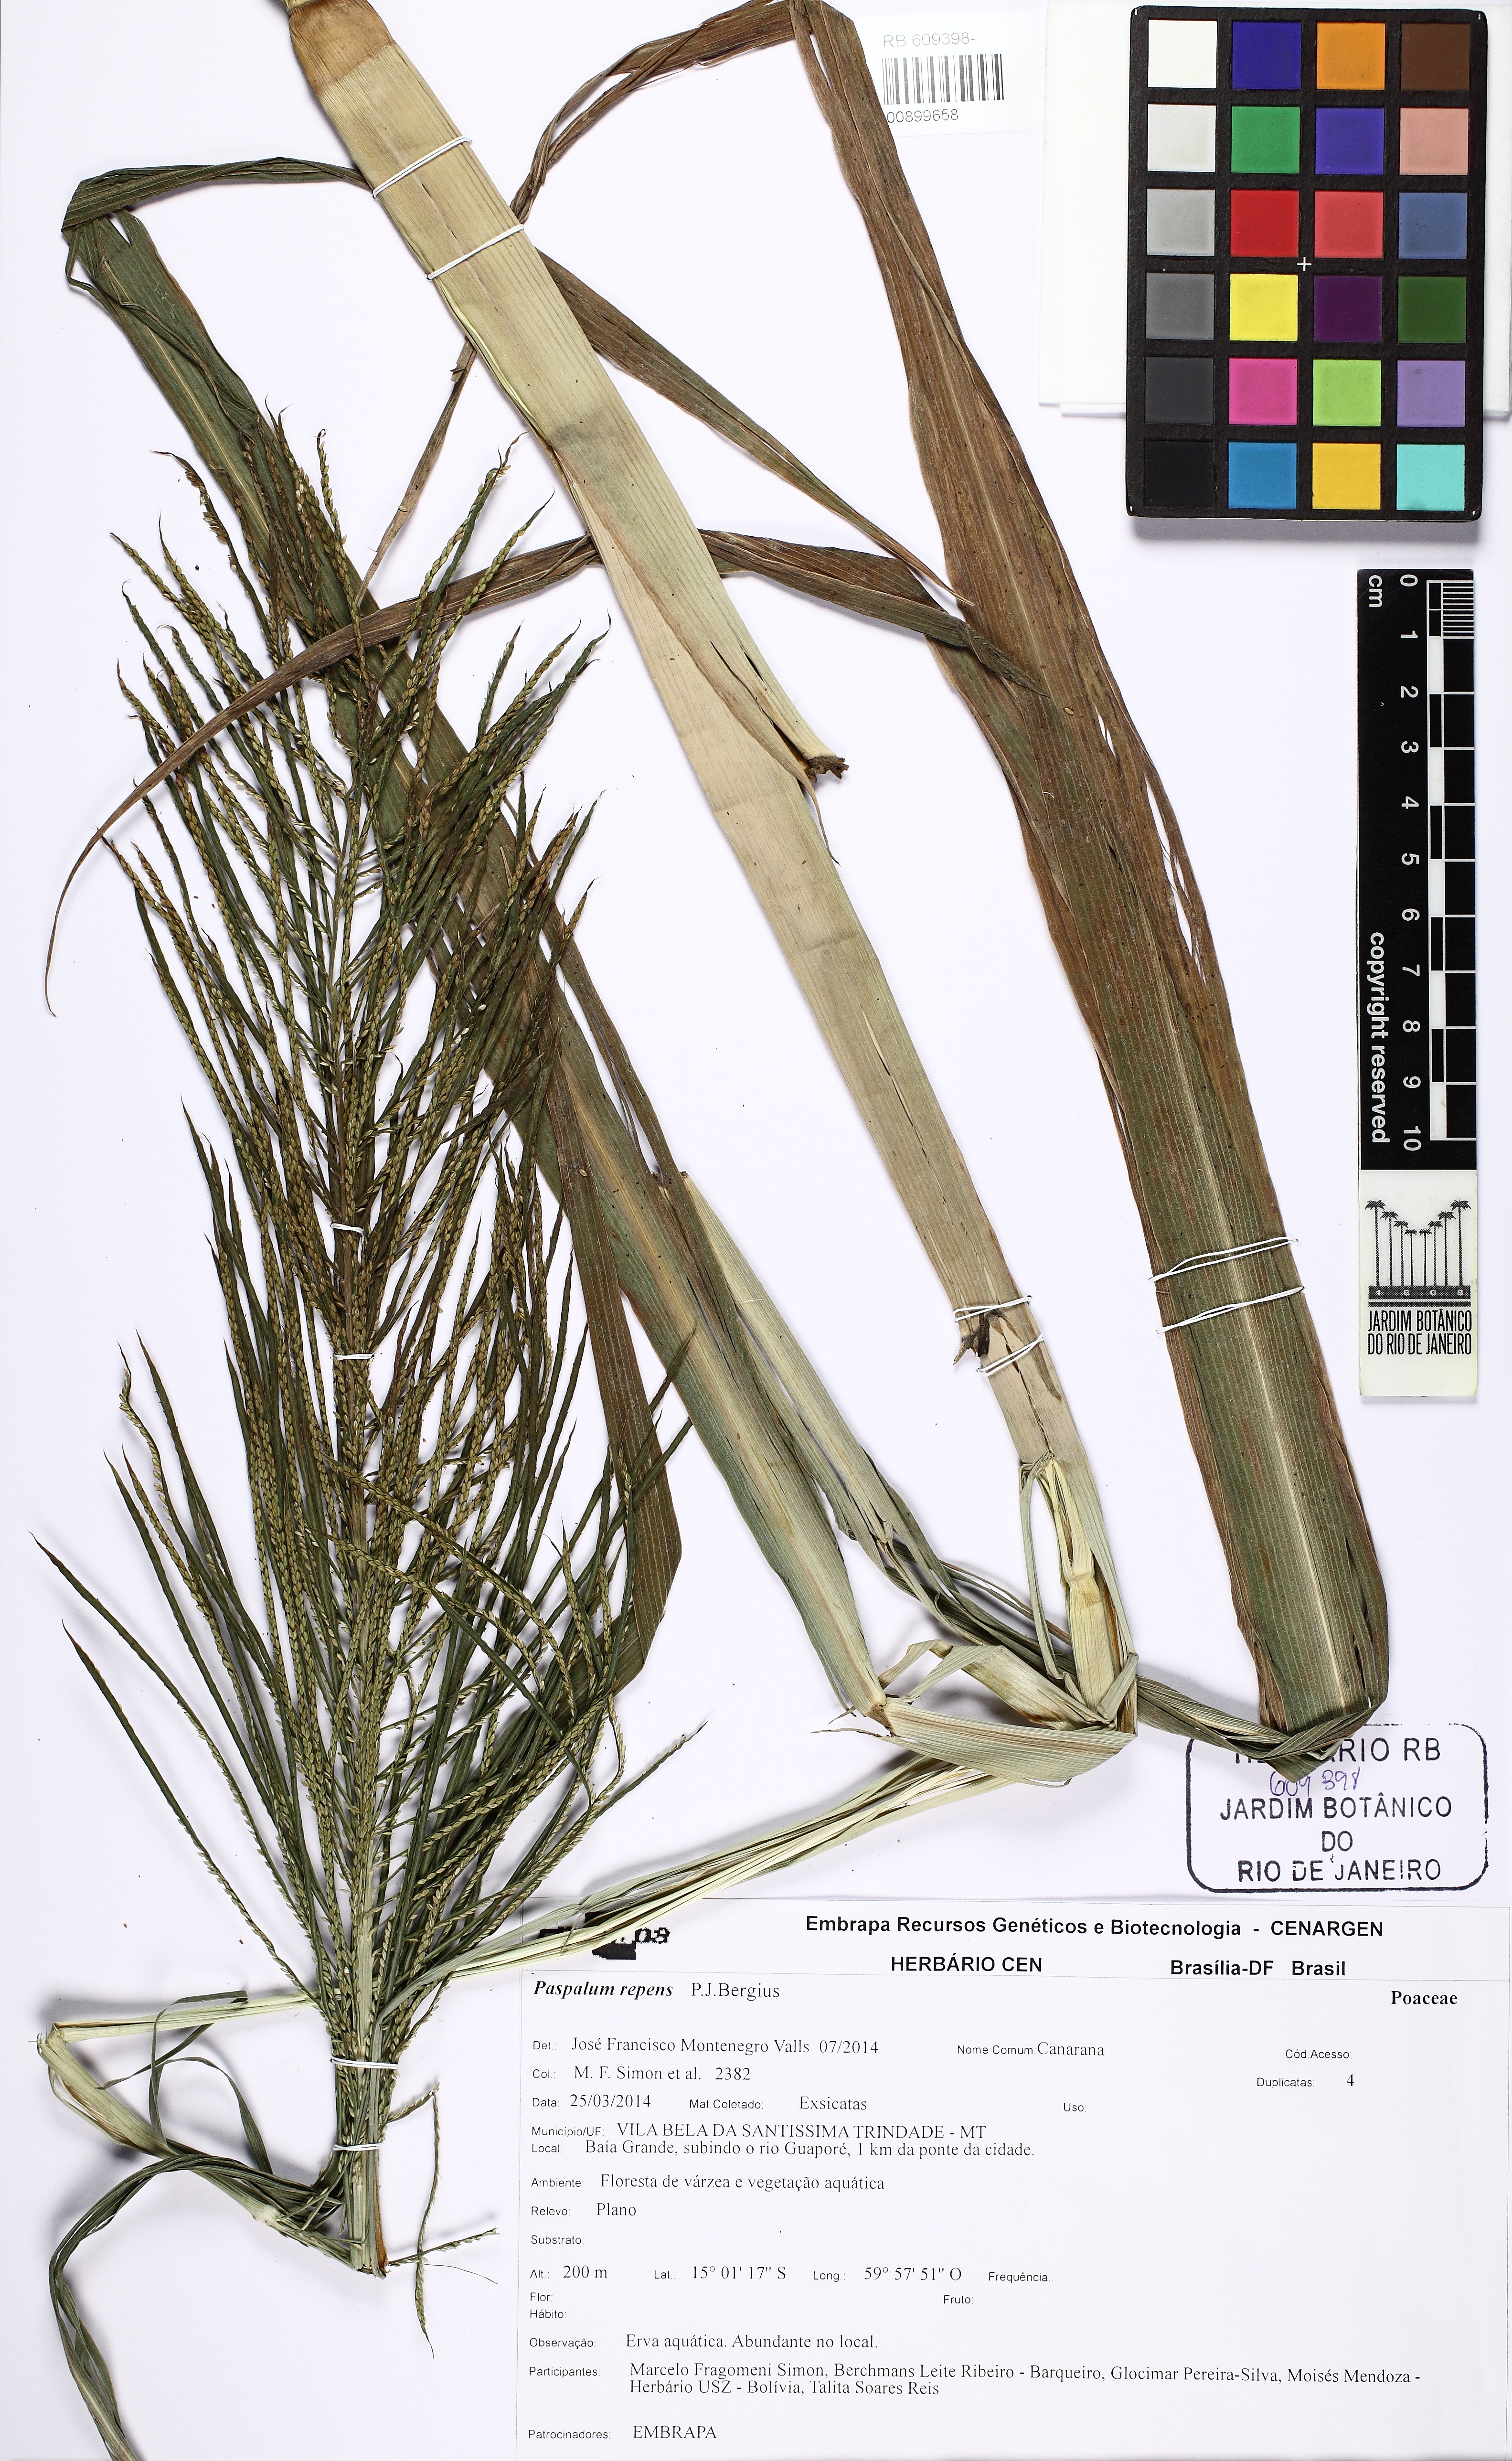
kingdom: Plantae
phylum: Tracheophyta
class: Liliopsida
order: Poales
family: Poaceae
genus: Paspalum
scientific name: Paspalum repens
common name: Water paspalum
